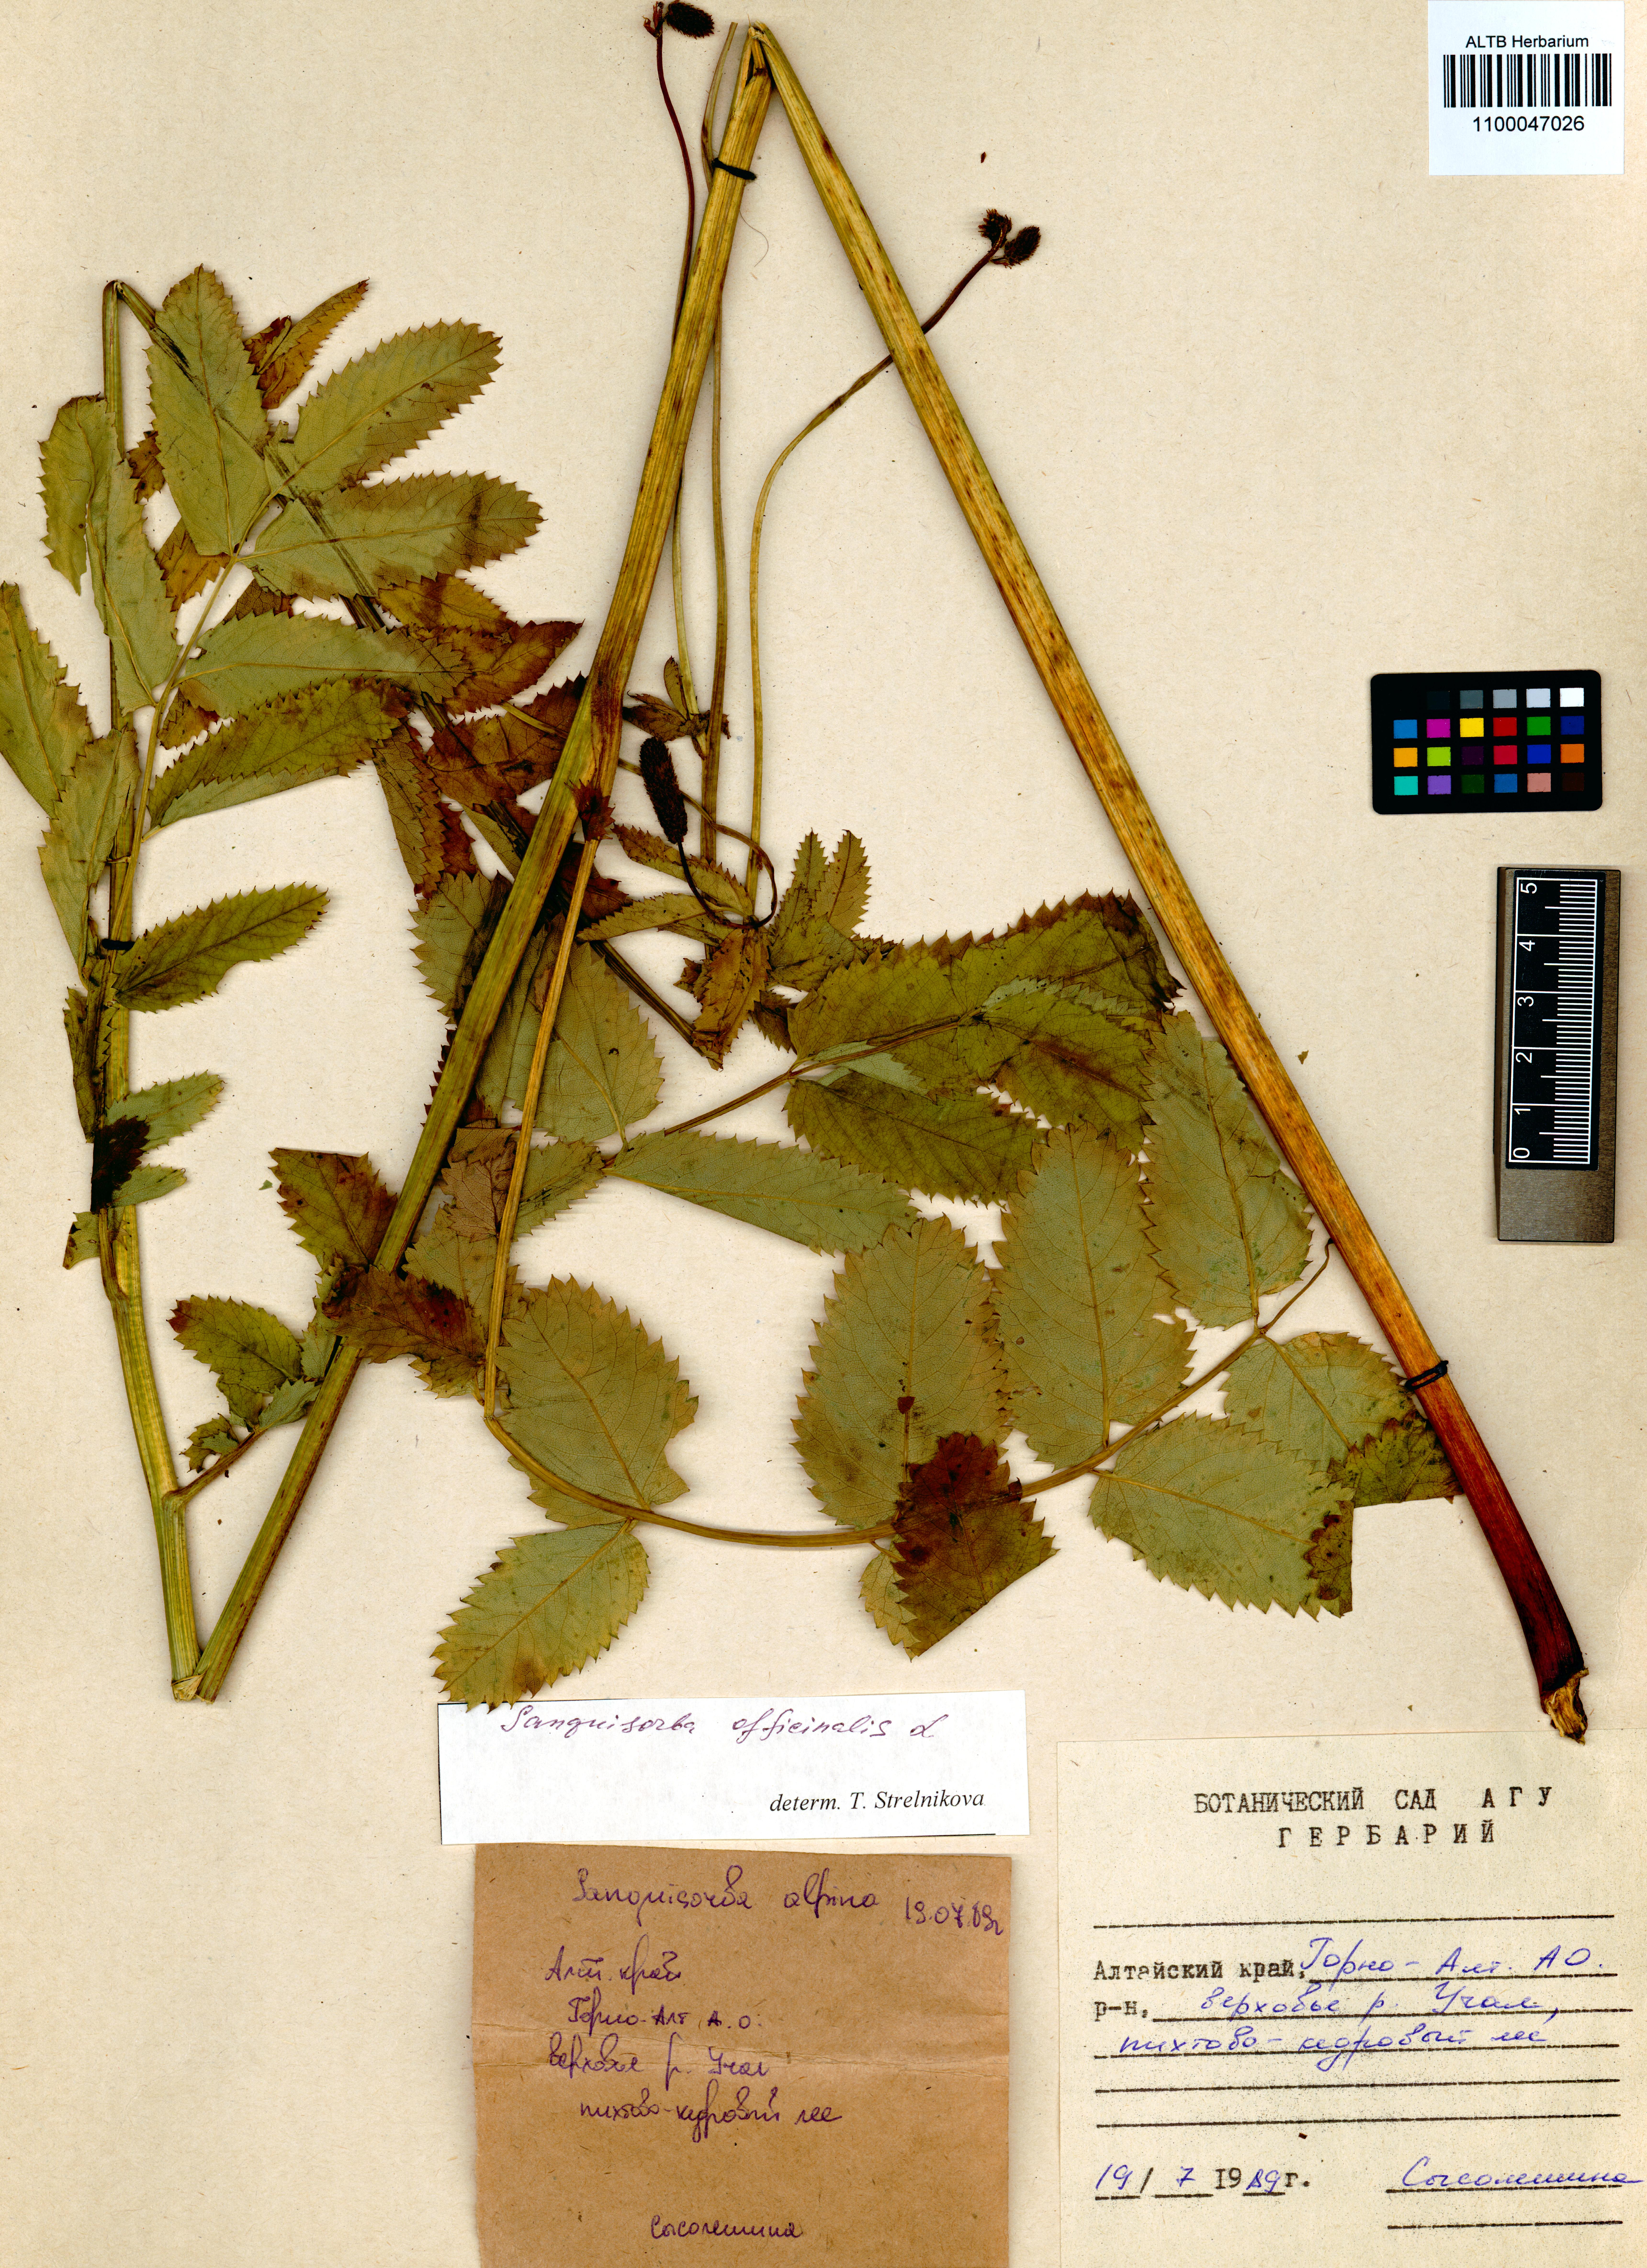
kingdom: Plantae
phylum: Tracheophyta
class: Magnoliopsida
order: Rosales
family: Rosaceae
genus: Sanguisorba
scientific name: Sanguisorba alpina
